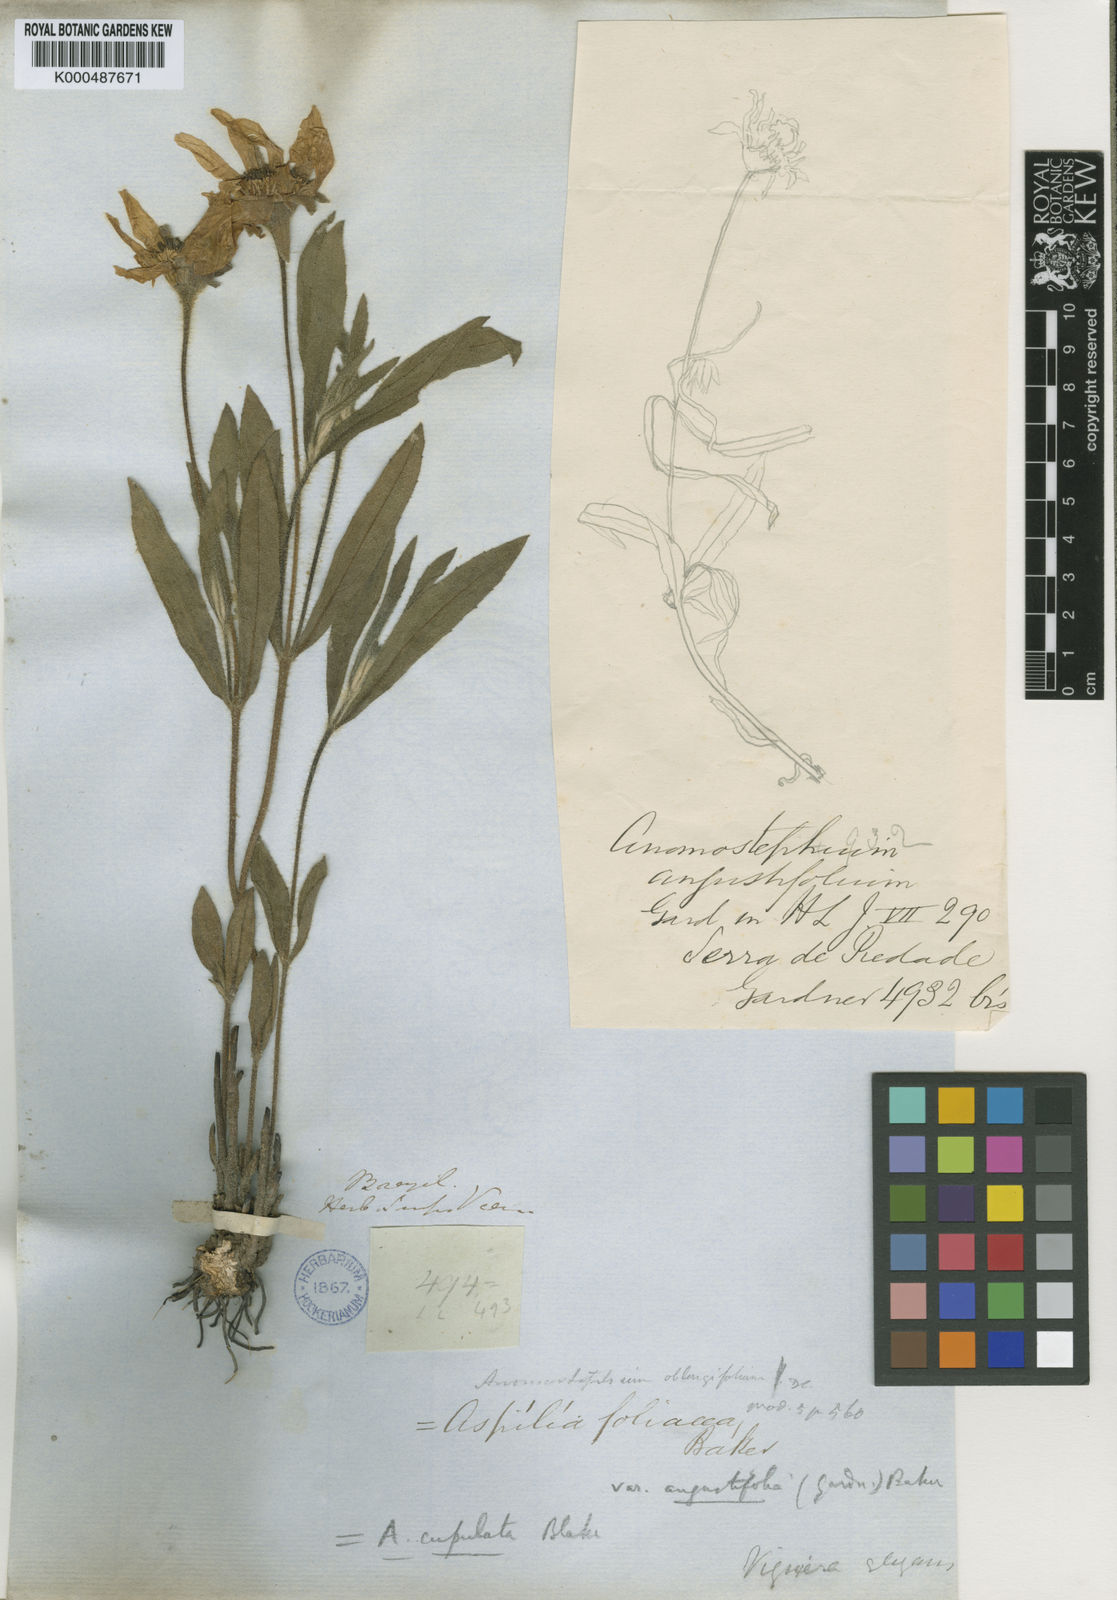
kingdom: Plantae
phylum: Tracheophyta
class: Magnoliopsida
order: Asterales
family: Asteraceae
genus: Wedelia
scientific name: Wedelia foliacea
